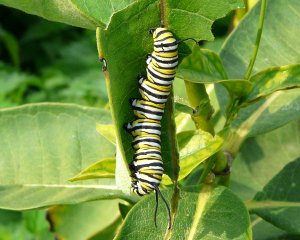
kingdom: Animalia
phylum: Arthropoda
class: Insecta
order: Lepidoptera
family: Nymphalidae
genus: Danaus
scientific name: Danaus plexippus
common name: Monarch
